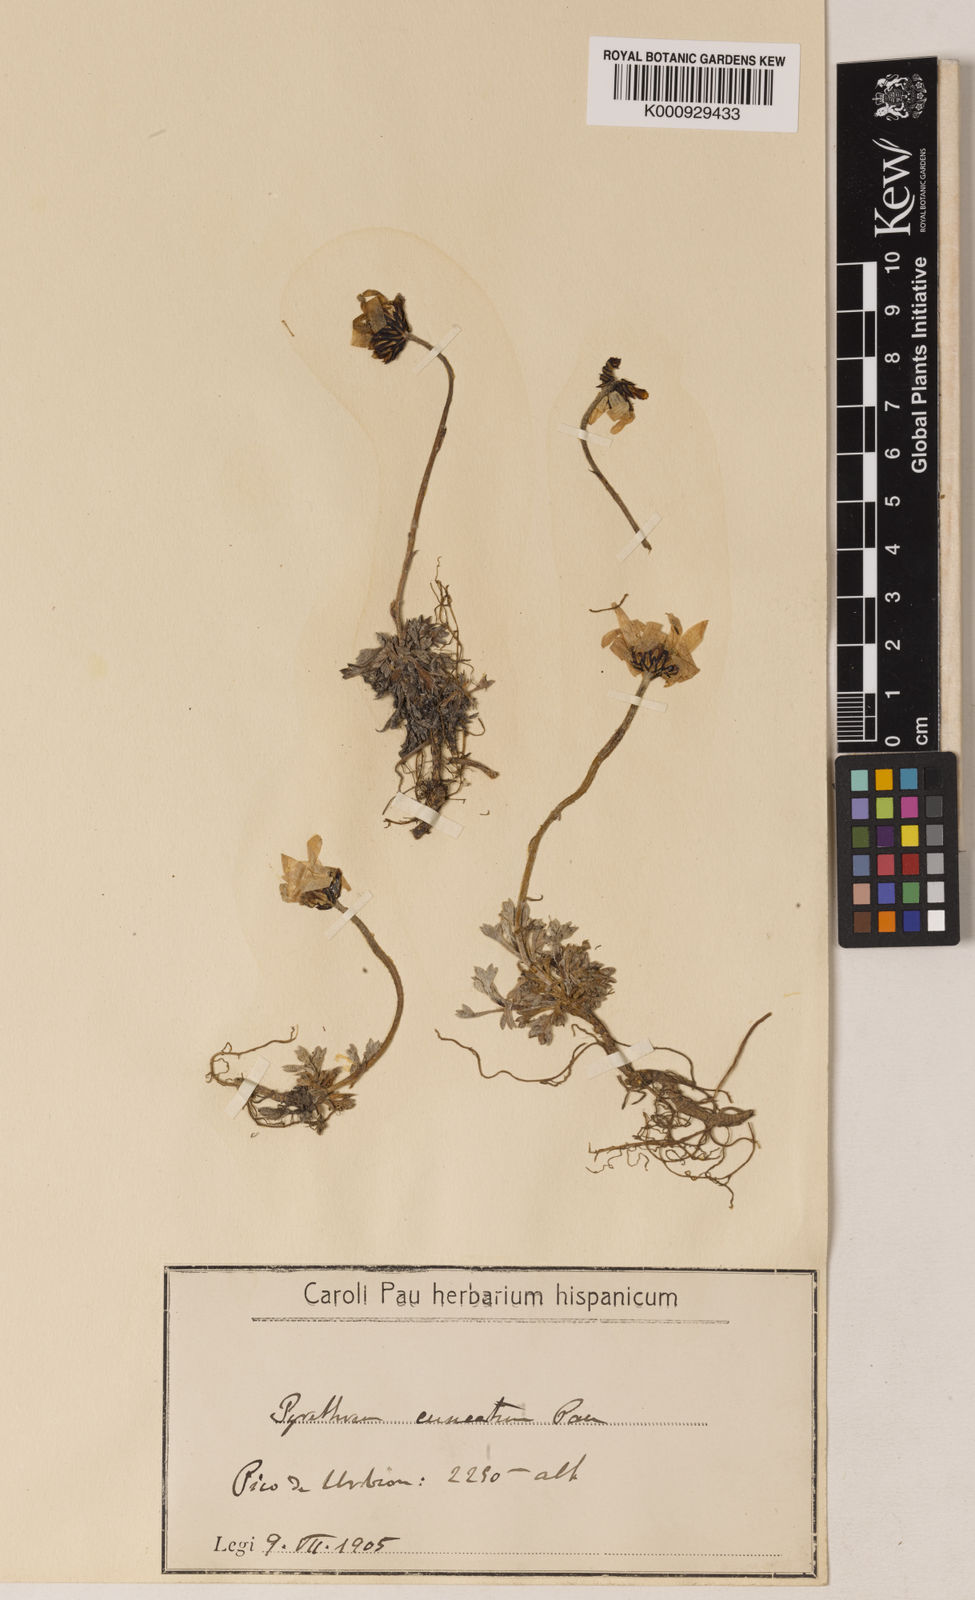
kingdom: Plantae
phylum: Tracheophyta
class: Magnoliopsida
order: Asterales
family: Asteraceae
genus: Leucanthemopsis
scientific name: Leucanthemopsis cuneata
